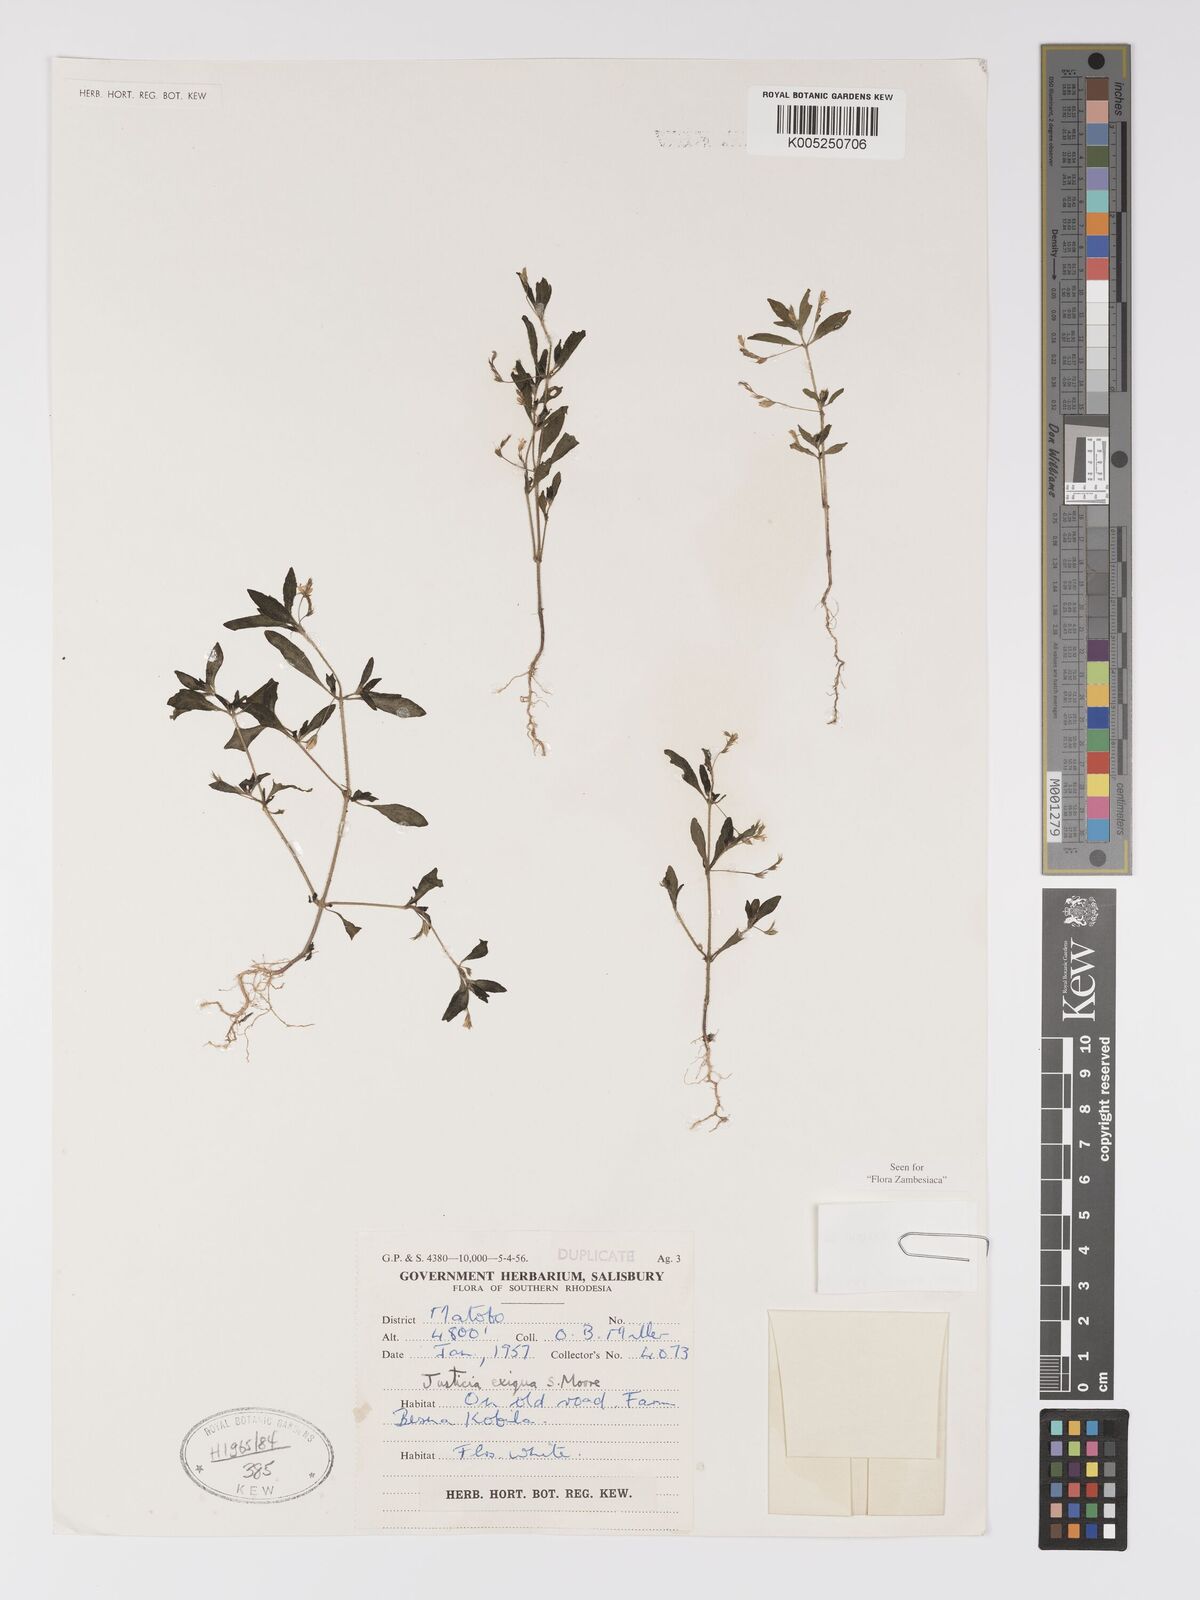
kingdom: Plantae
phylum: Tracheophyta
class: Magnoliopsida
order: Lamiales
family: Acanthaceae
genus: Justicia
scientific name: Justicia exigua
